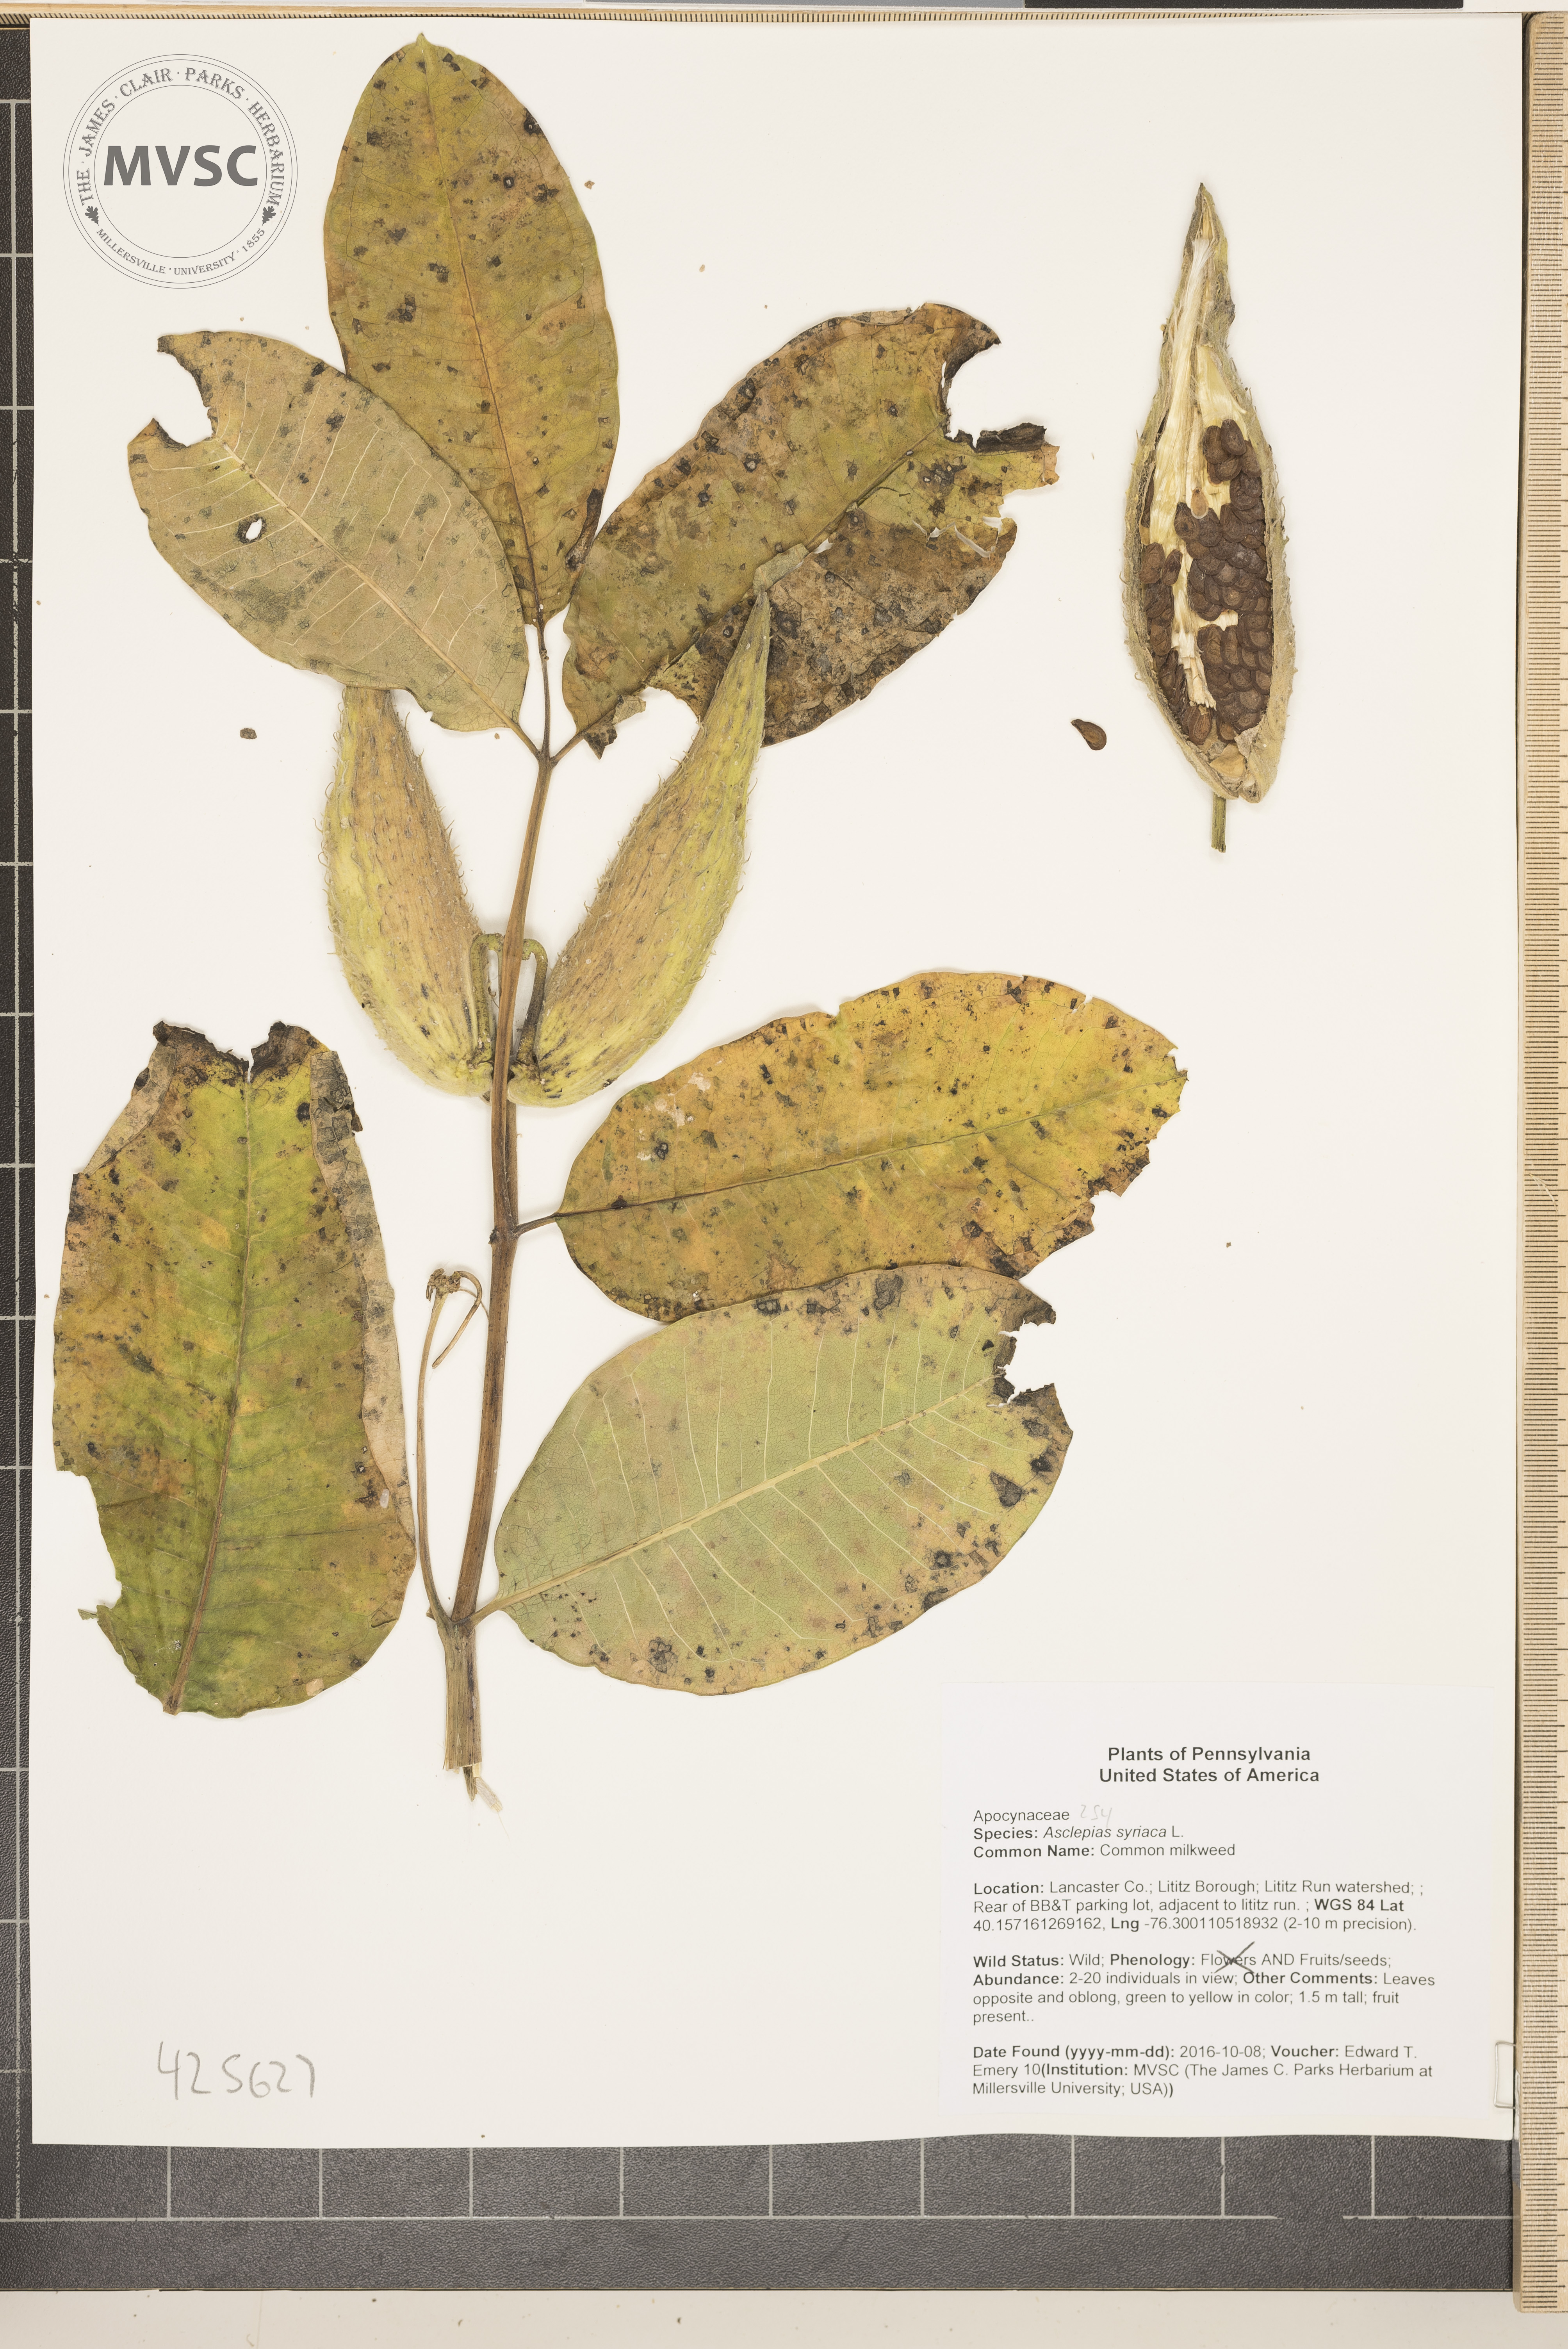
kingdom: Plantae
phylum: Tracheophyta
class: Magnoliopsida
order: Gentianales
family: Apocynaceae
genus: Asclepias
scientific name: Asclepias syriaca
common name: Common milkweed
